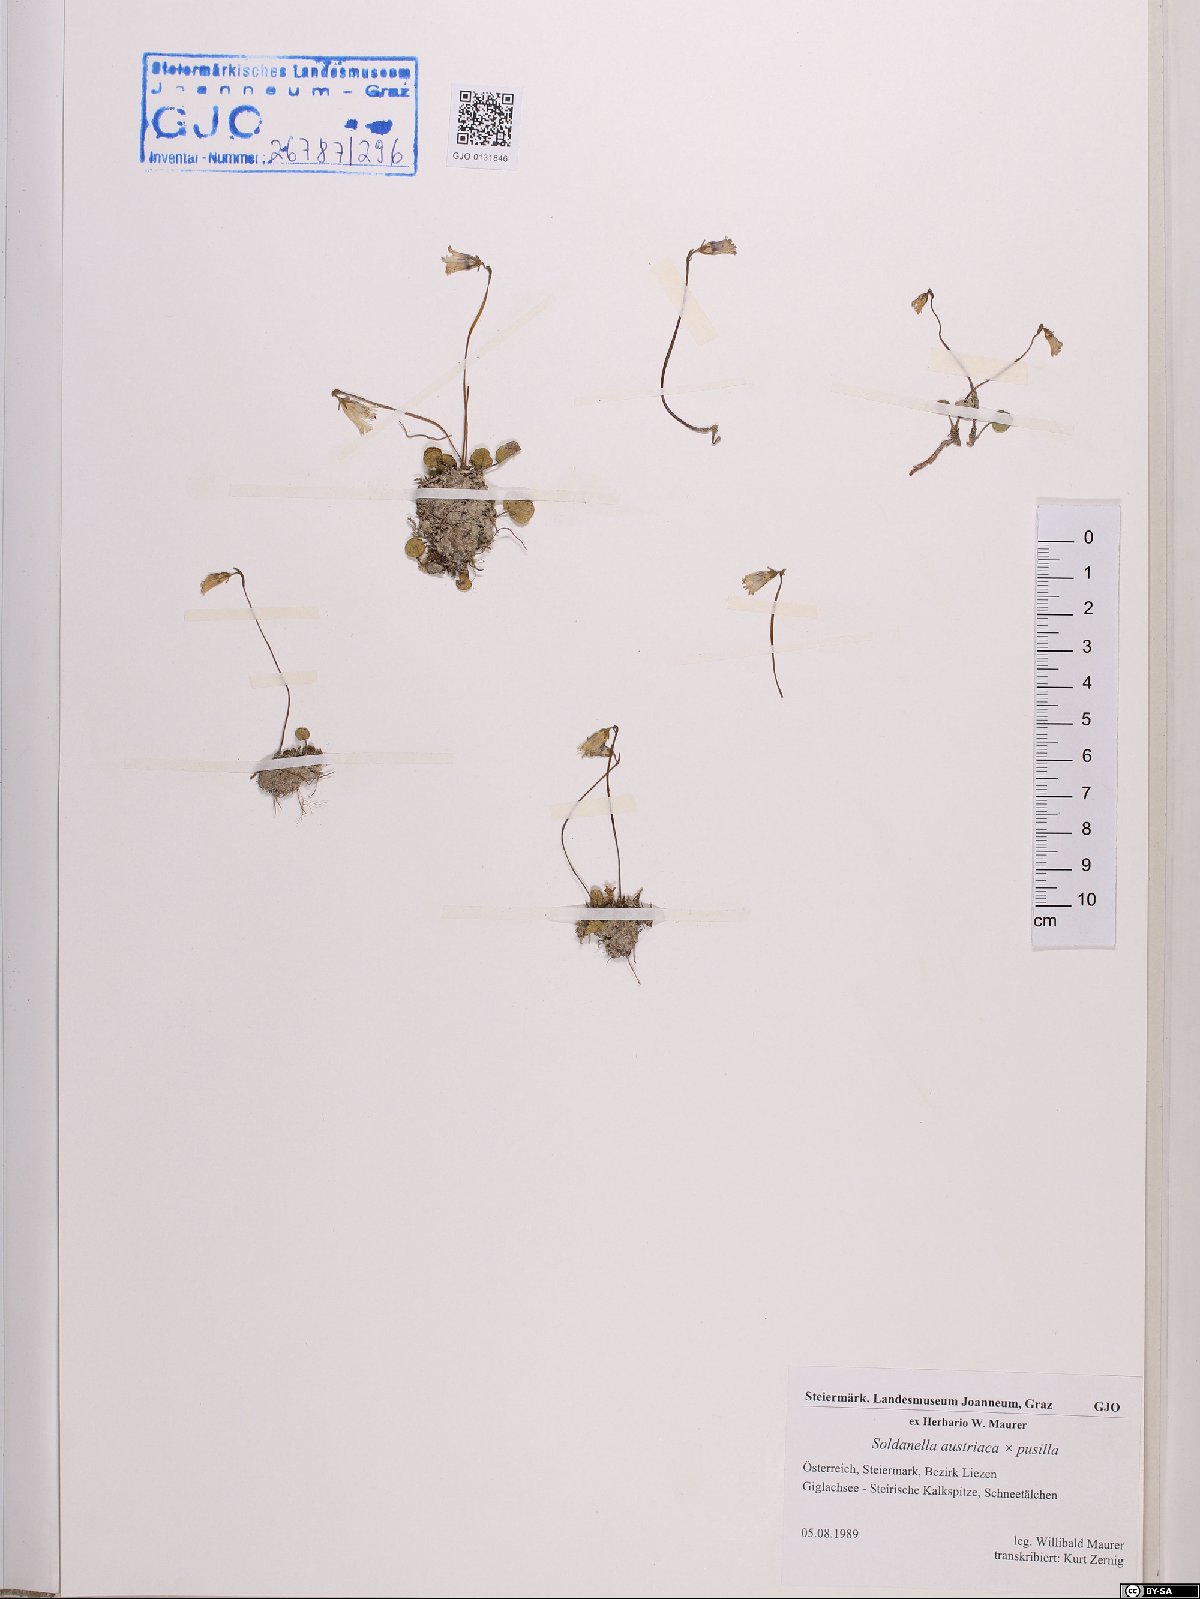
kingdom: Plantae
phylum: Tracheophyta
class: Magnoliopsida
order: Ericales
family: Primulaceae
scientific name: Primulaceae
